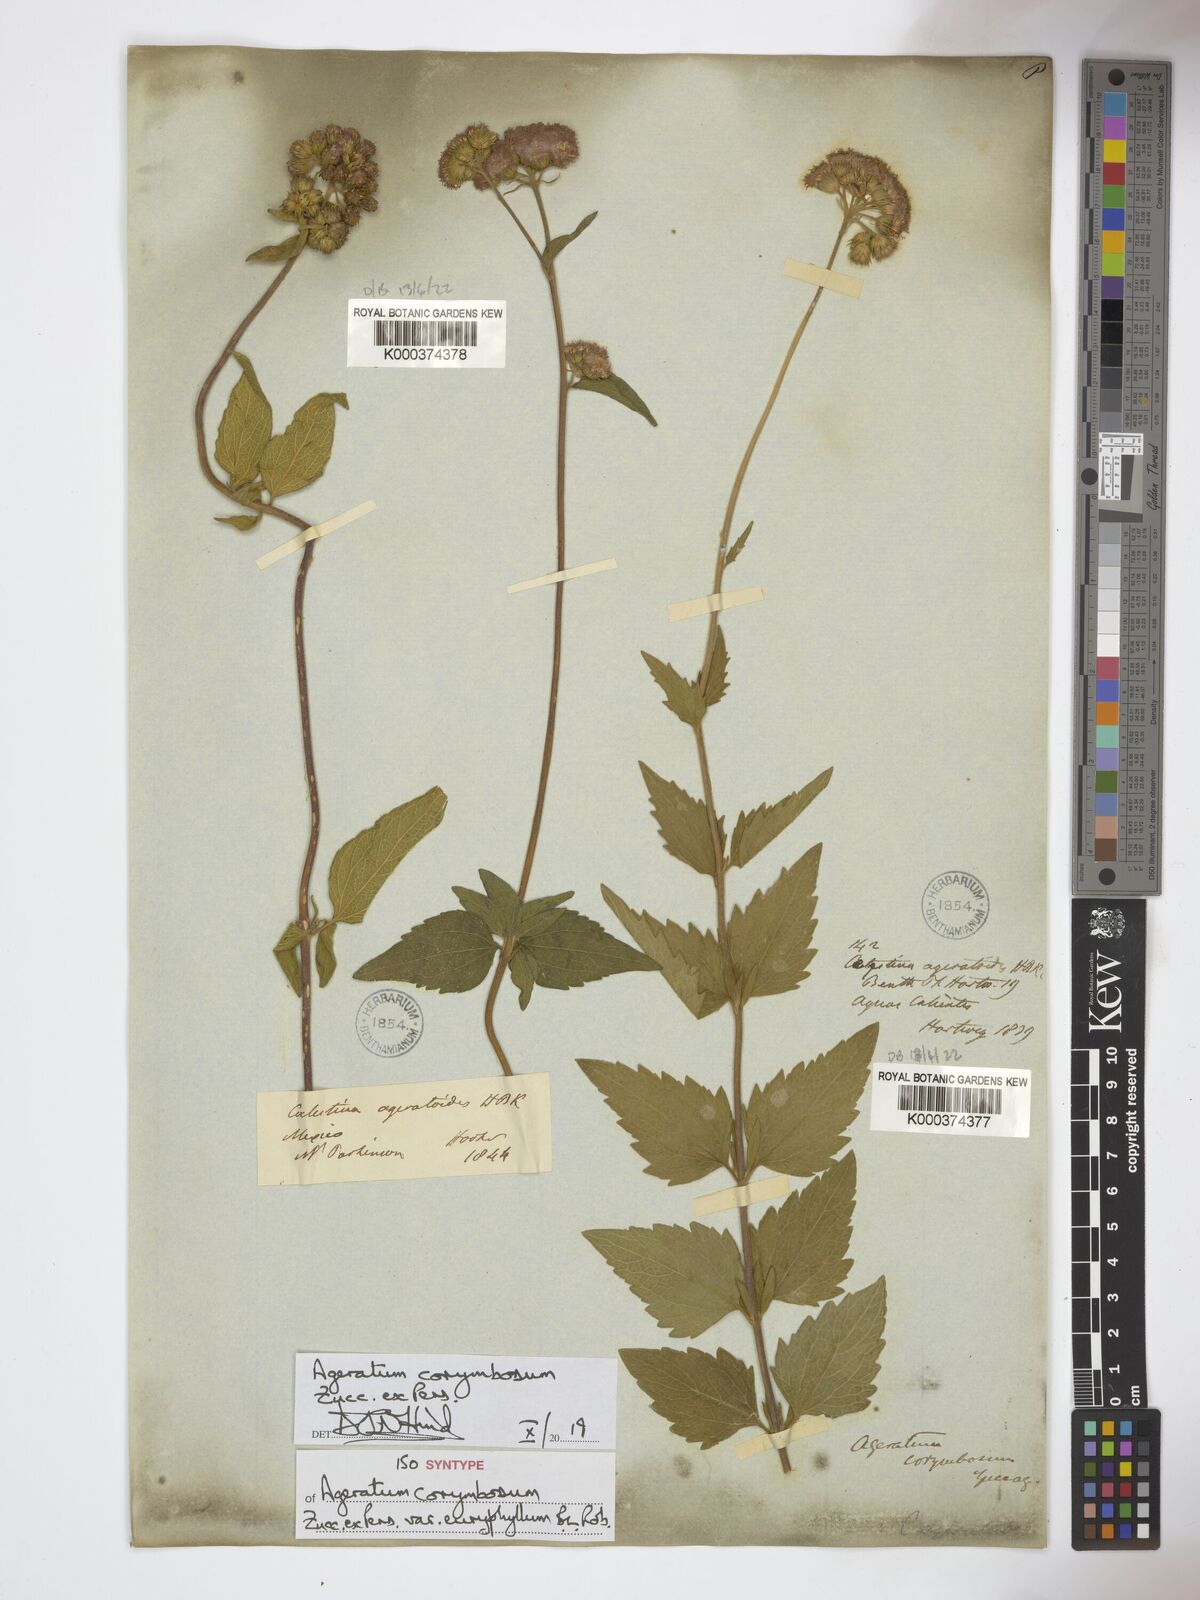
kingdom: Plantae
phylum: Tracheophyta
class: Magnoliopsida
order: Asterales
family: Asteraceae
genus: Ageratum
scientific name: Ageratum corymbosum
